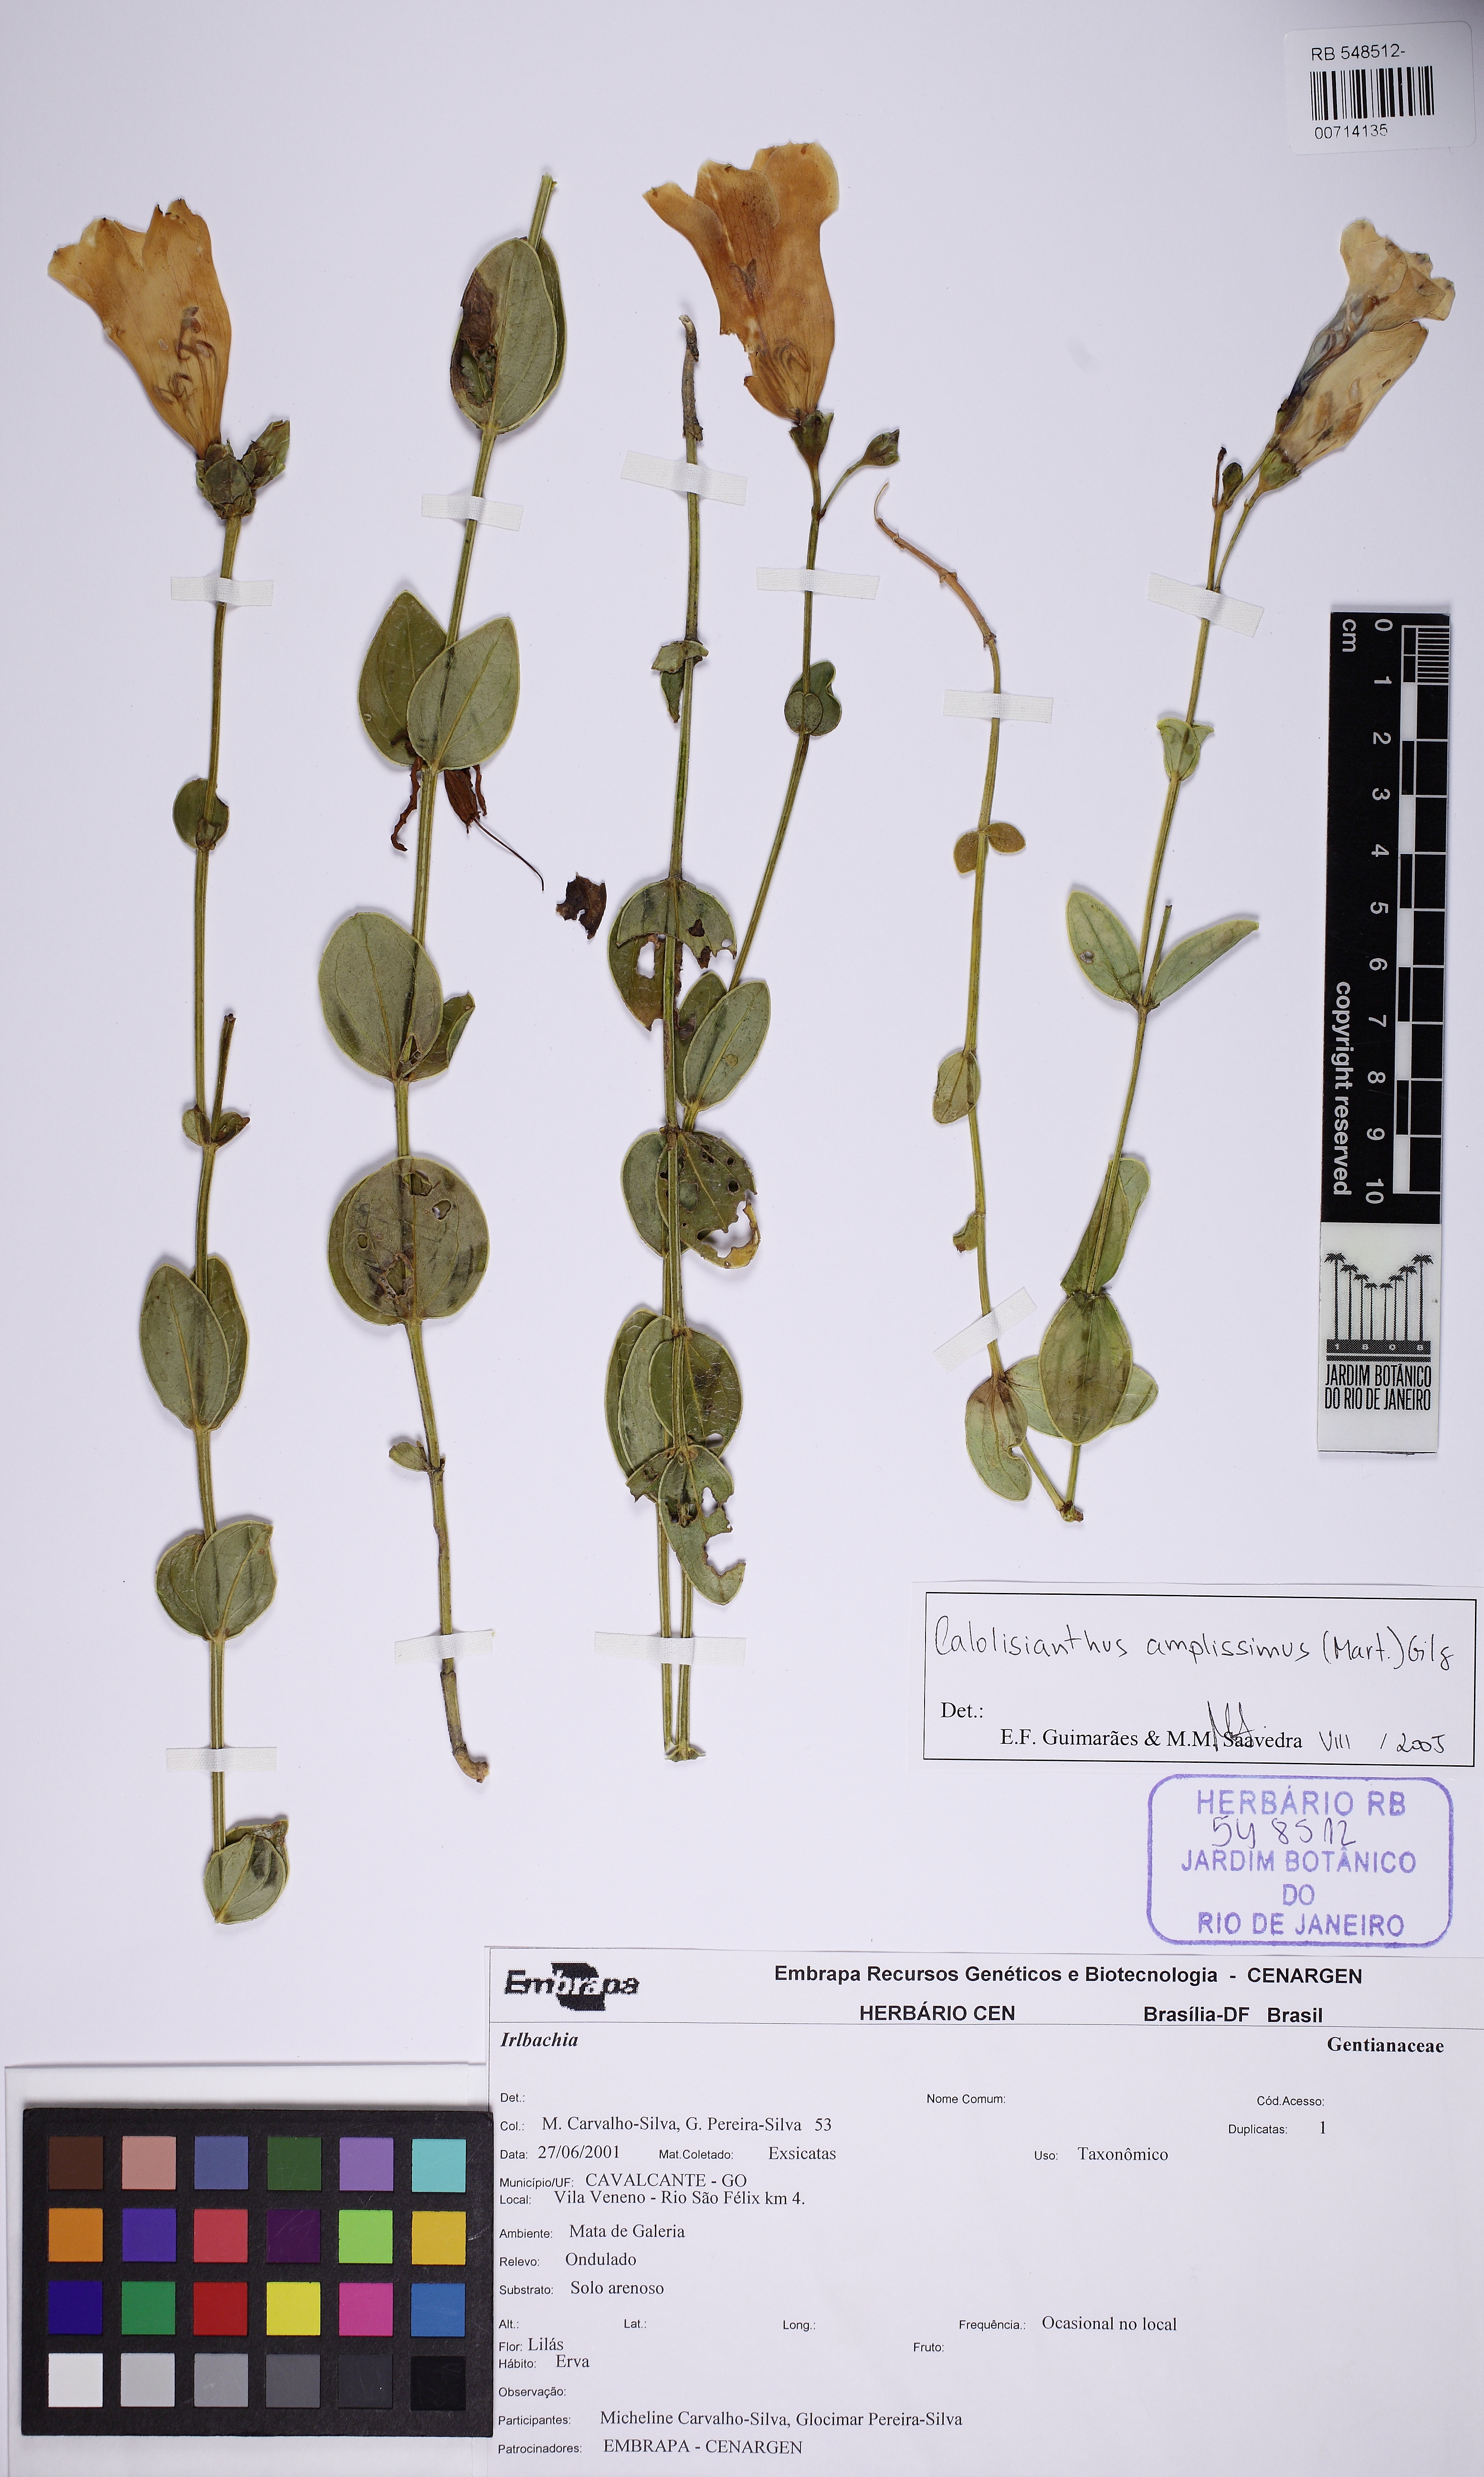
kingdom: Plantae
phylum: Tracheophyta
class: Magnoliopsida
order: Gentianales
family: Gentianaceae
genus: Calolisianthus
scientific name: Calolisianthus speciosus
